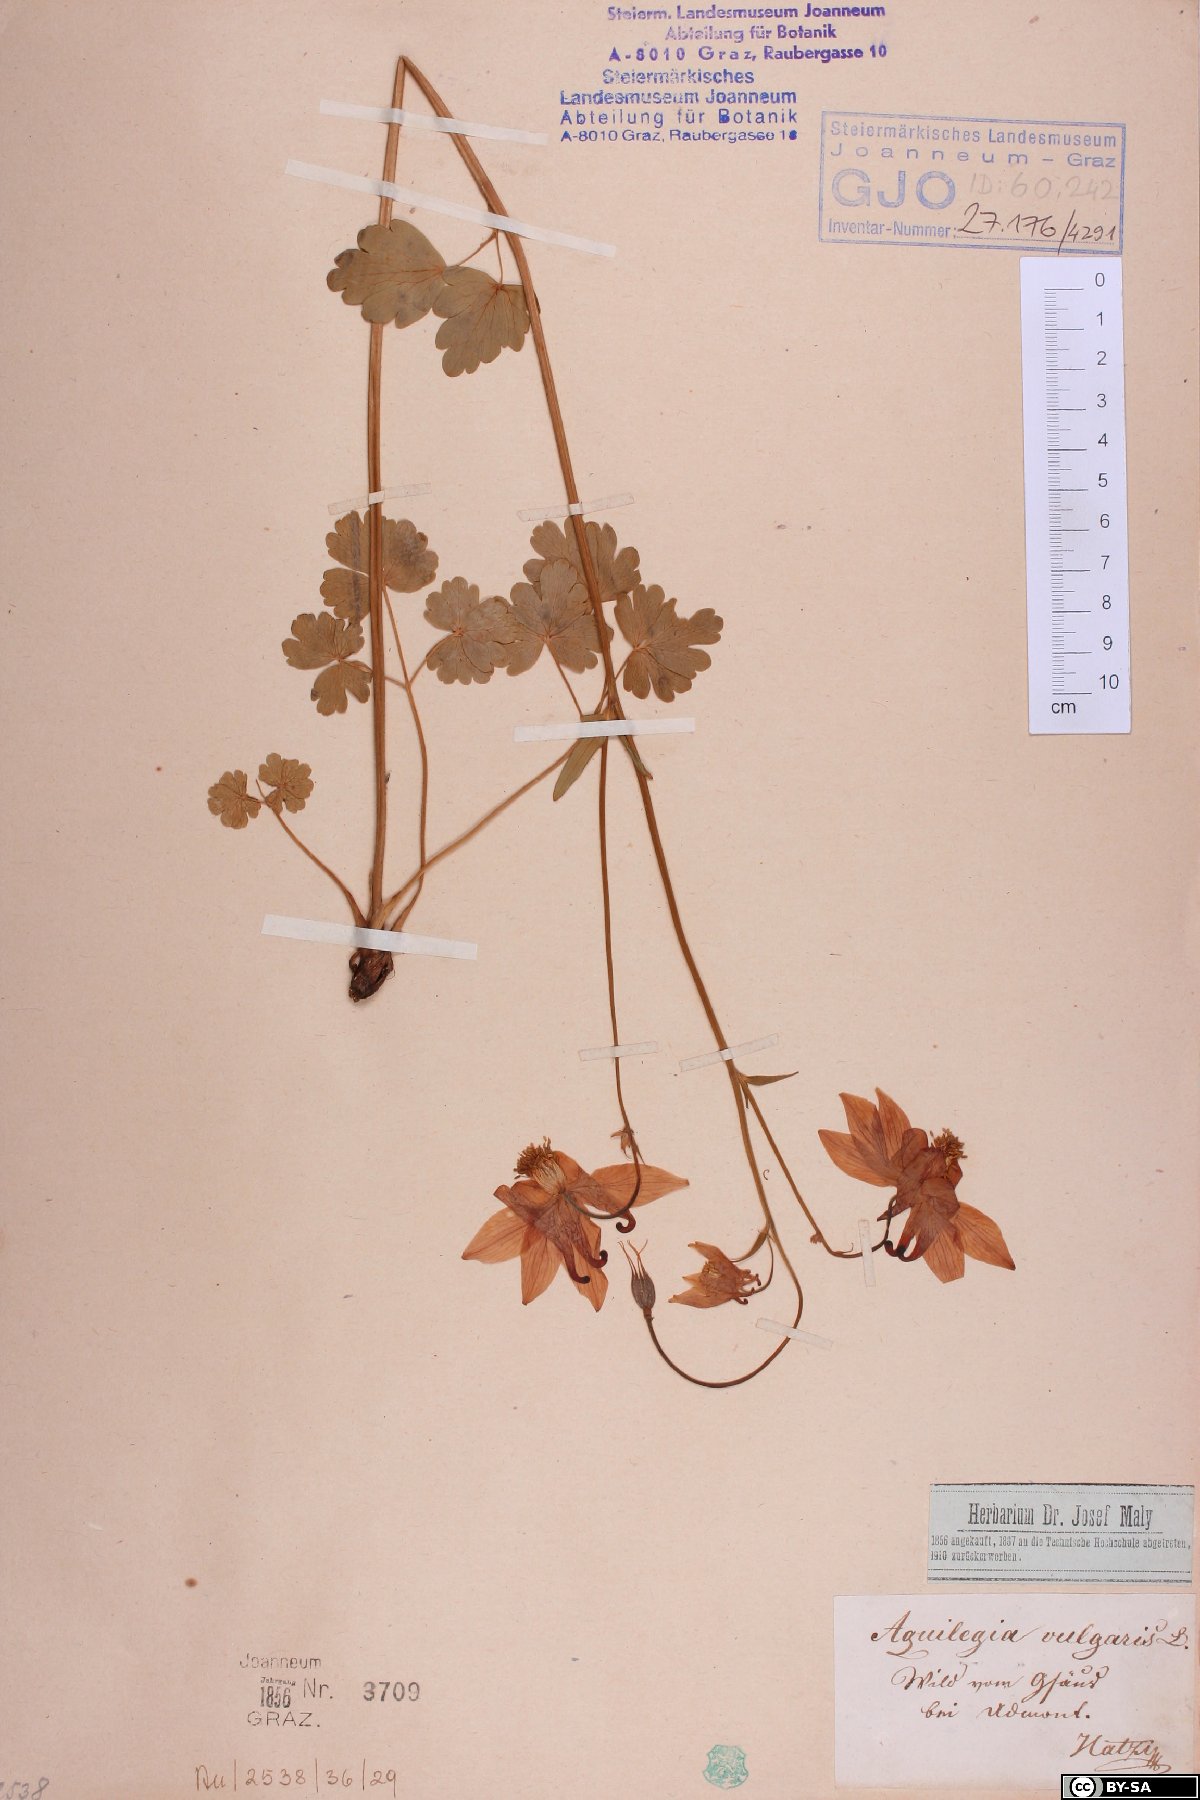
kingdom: Plantae
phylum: Tracheophyta
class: Magnoliopsida
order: Ranunculales
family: Ranunculaceae
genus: Aquilegia
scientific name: Aquilegia vulgaris
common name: Columbine
